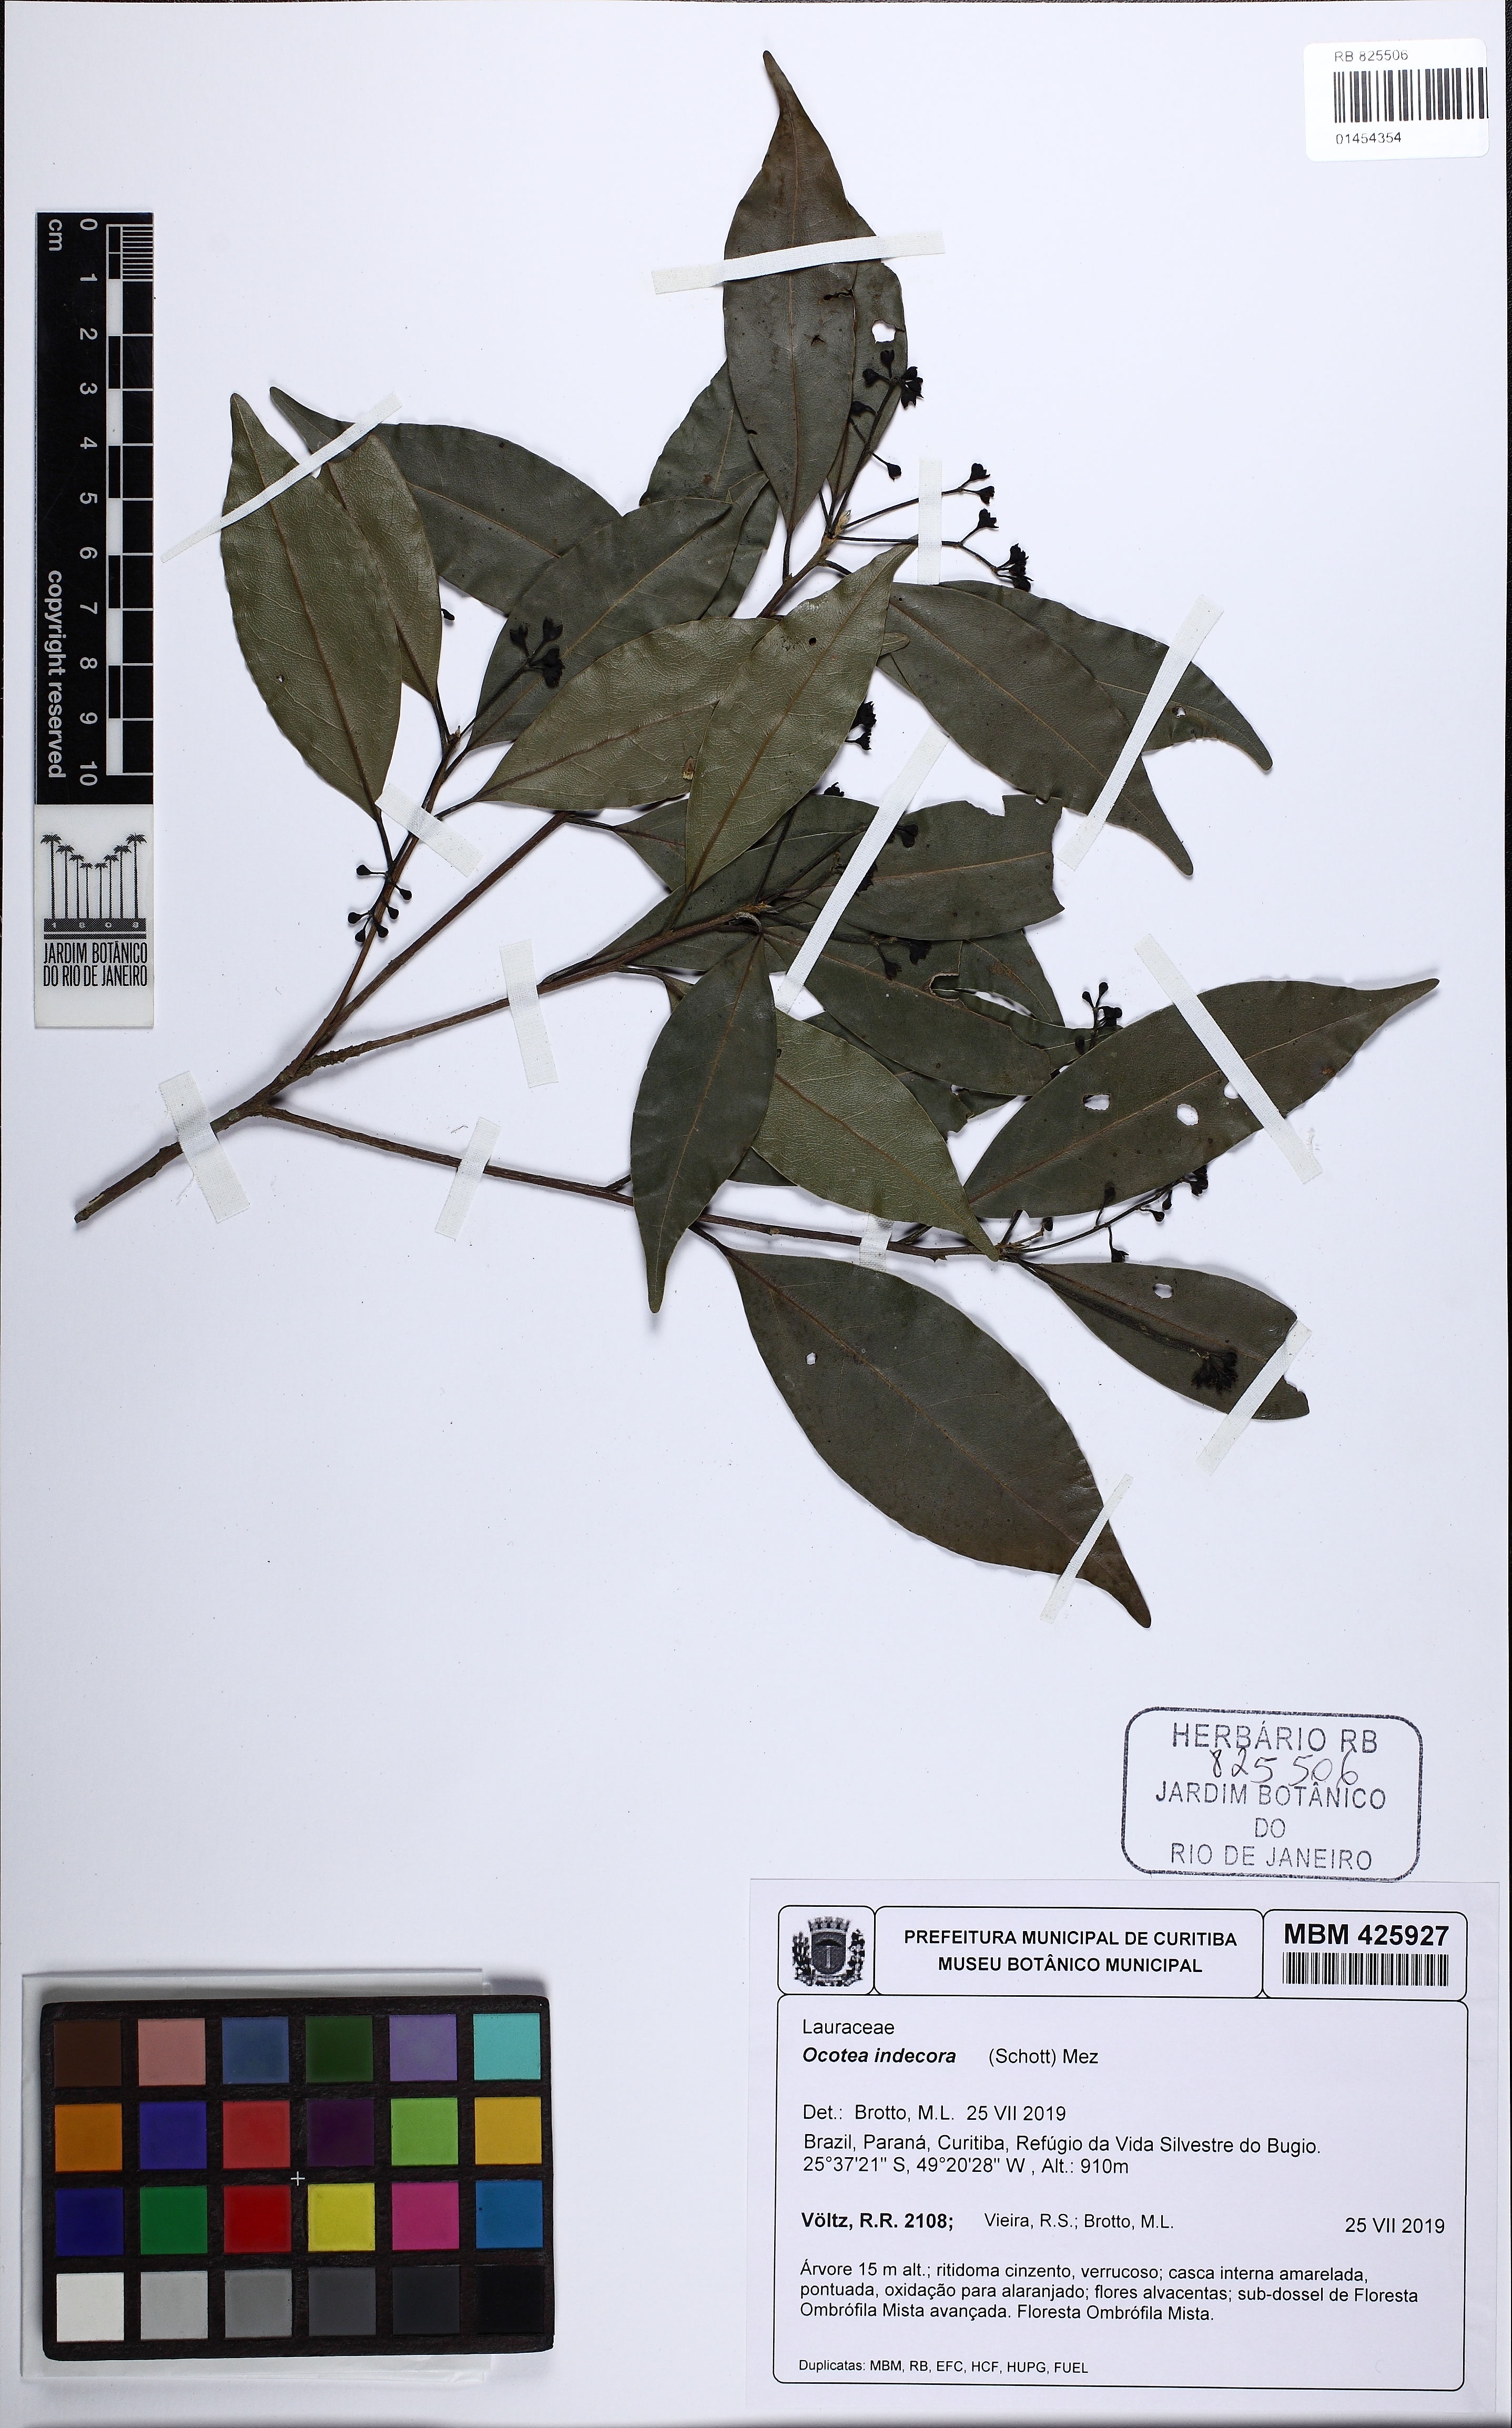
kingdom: Plantae
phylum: Tracheophyta
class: Magnoliopsida
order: Laurales
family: Lauraceae
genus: Mespilodaphne
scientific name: Mespilodaphne indecora
